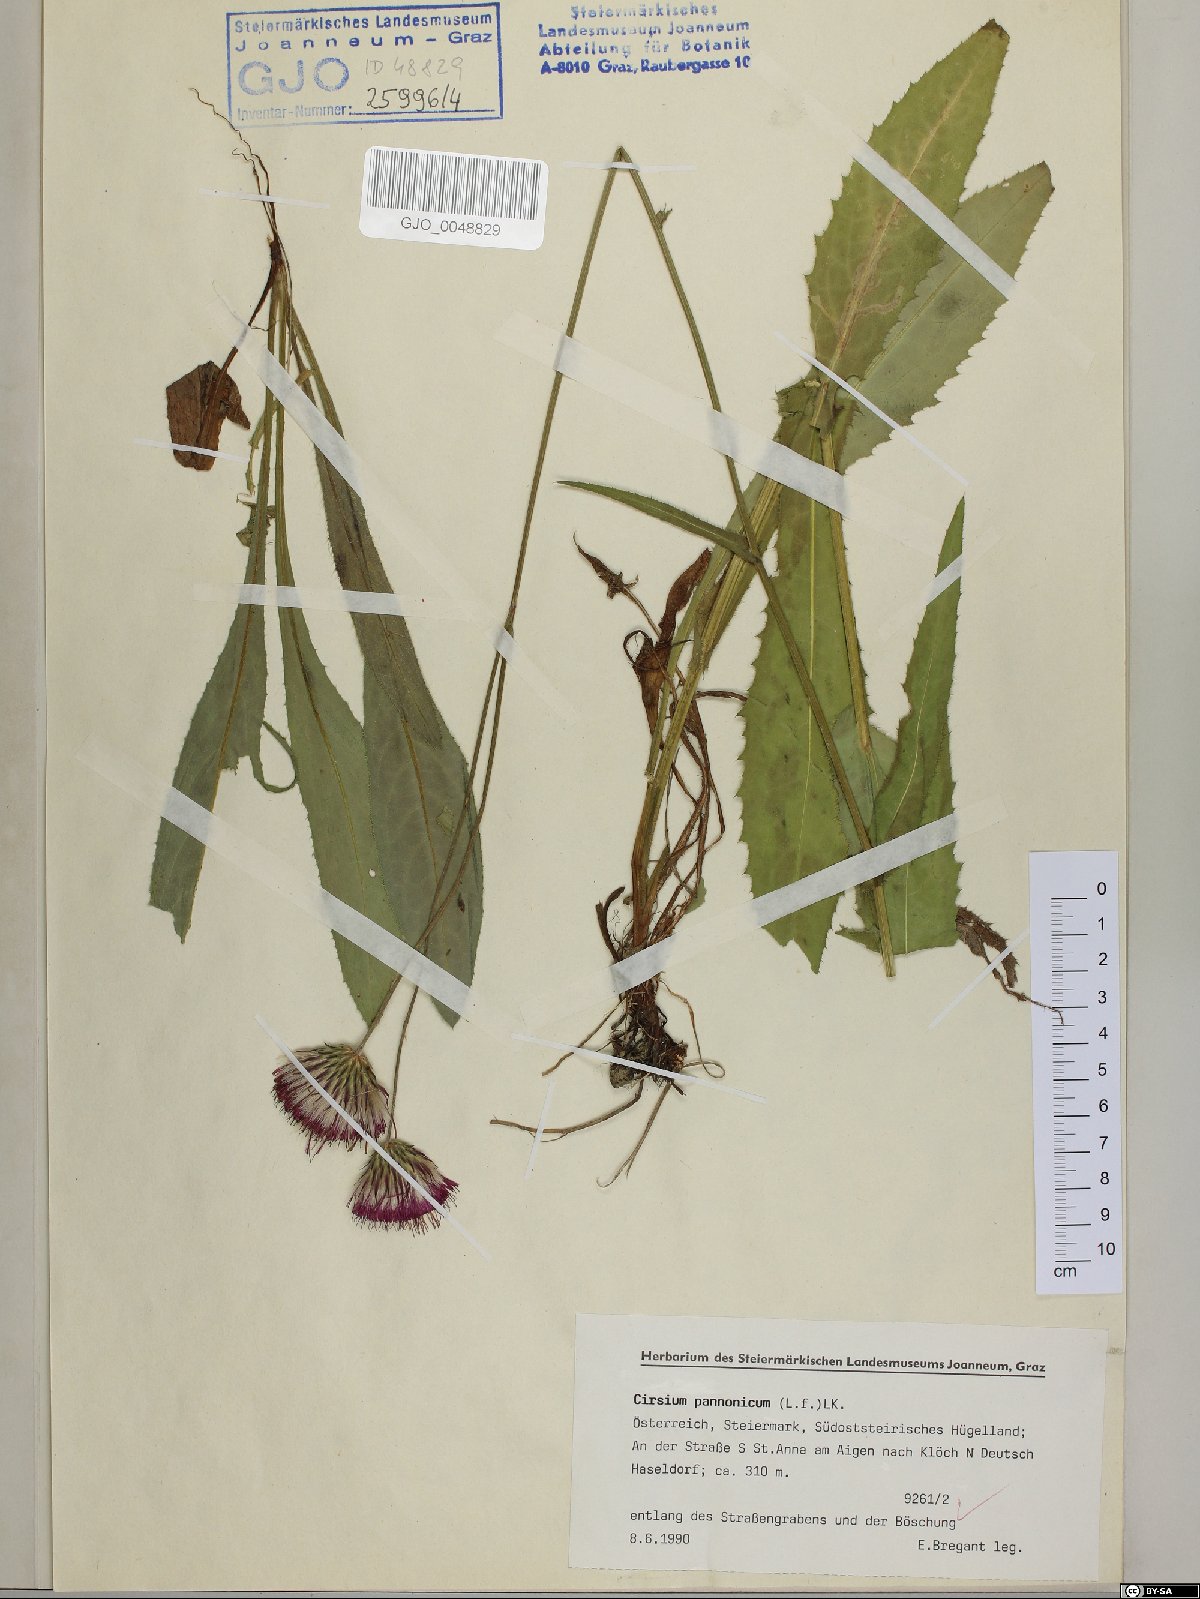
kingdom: Plantae
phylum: Tracheophyta
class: Magnoliopsida
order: Asterales
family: Asteraceae
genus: Cirsium
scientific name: Cirsium pannonicum
